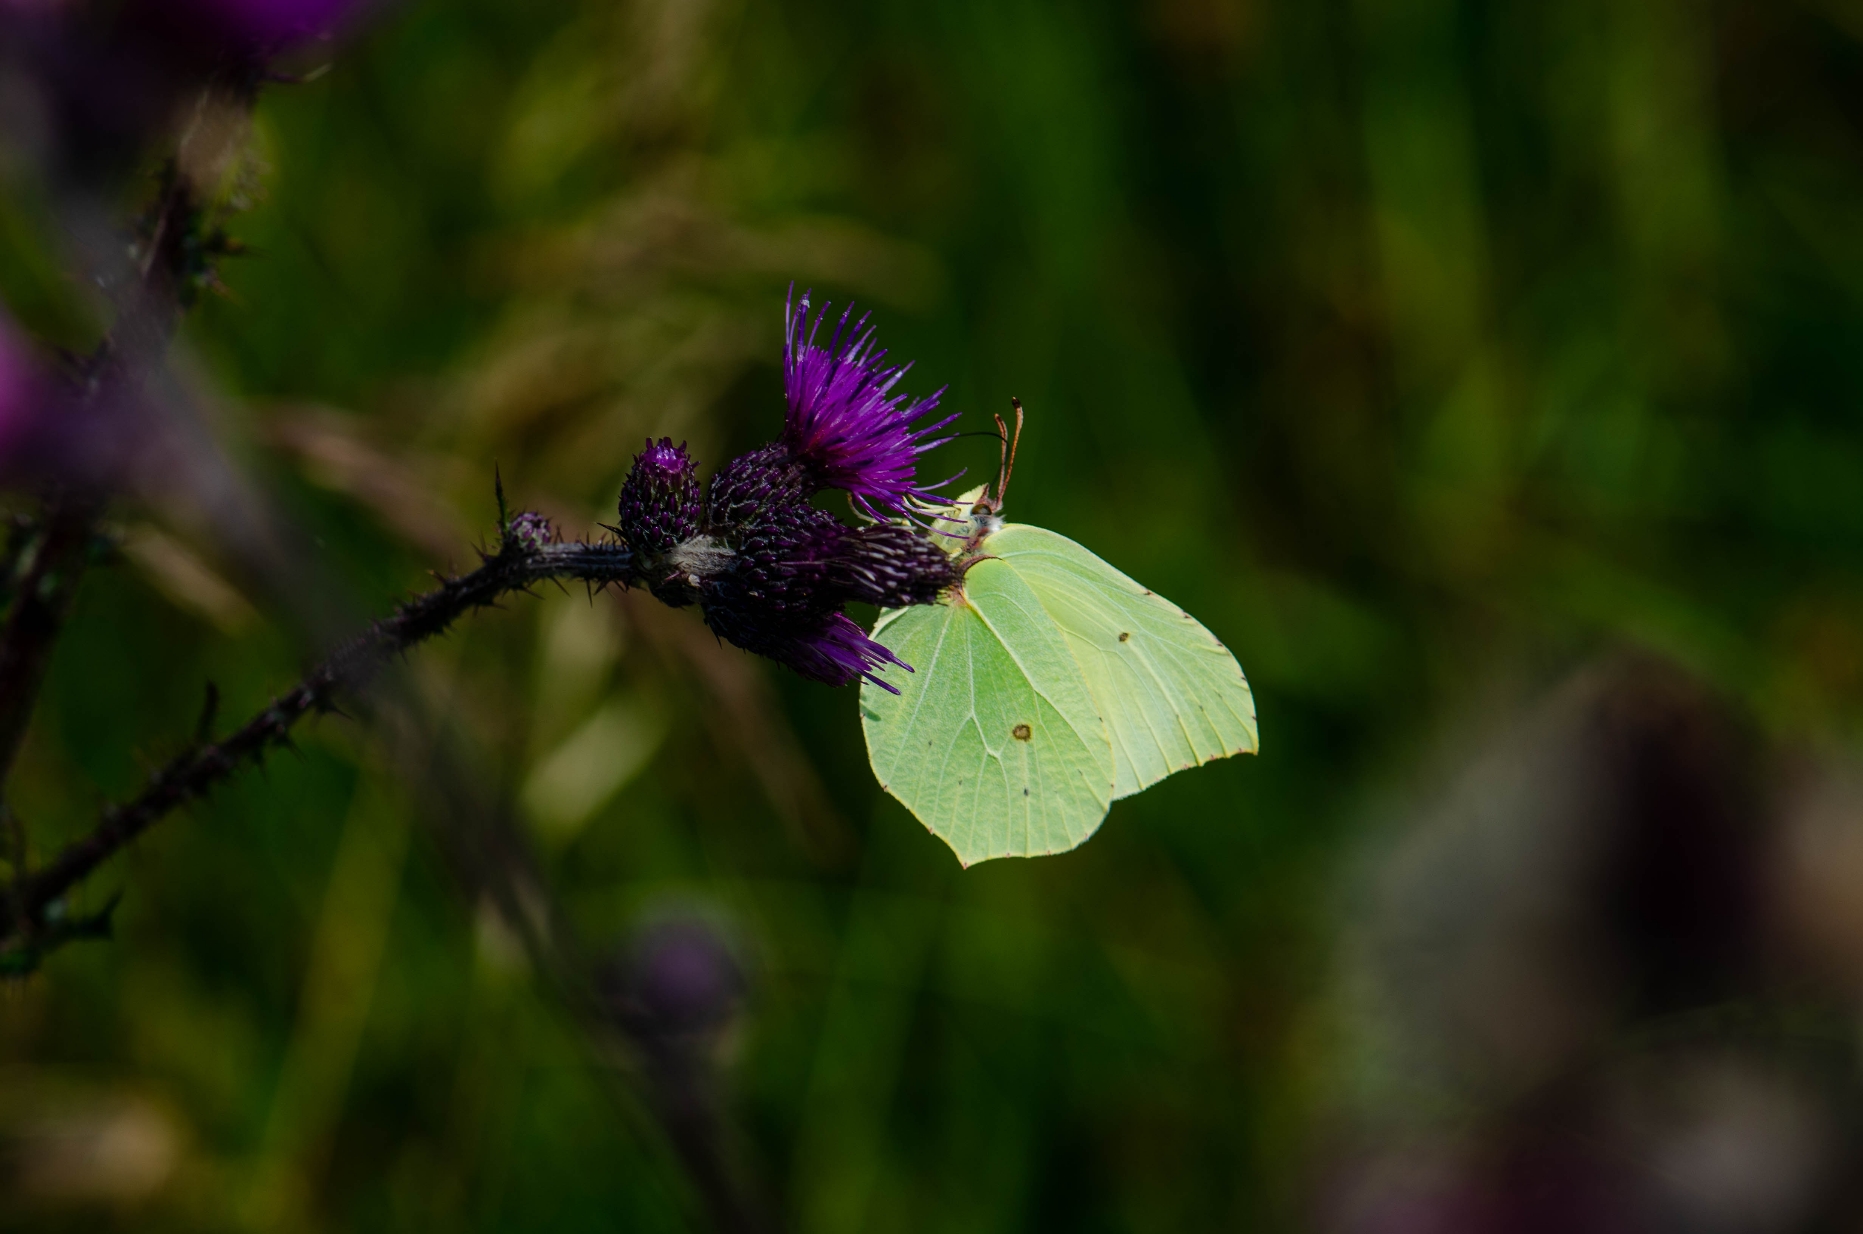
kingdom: Animalia
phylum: Arthropoda
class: Insecta
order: Lepidoptera
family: Pieridae
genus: Gonepteryx
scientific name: Gonepteryx rhamni
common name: Citronsommerfugl
